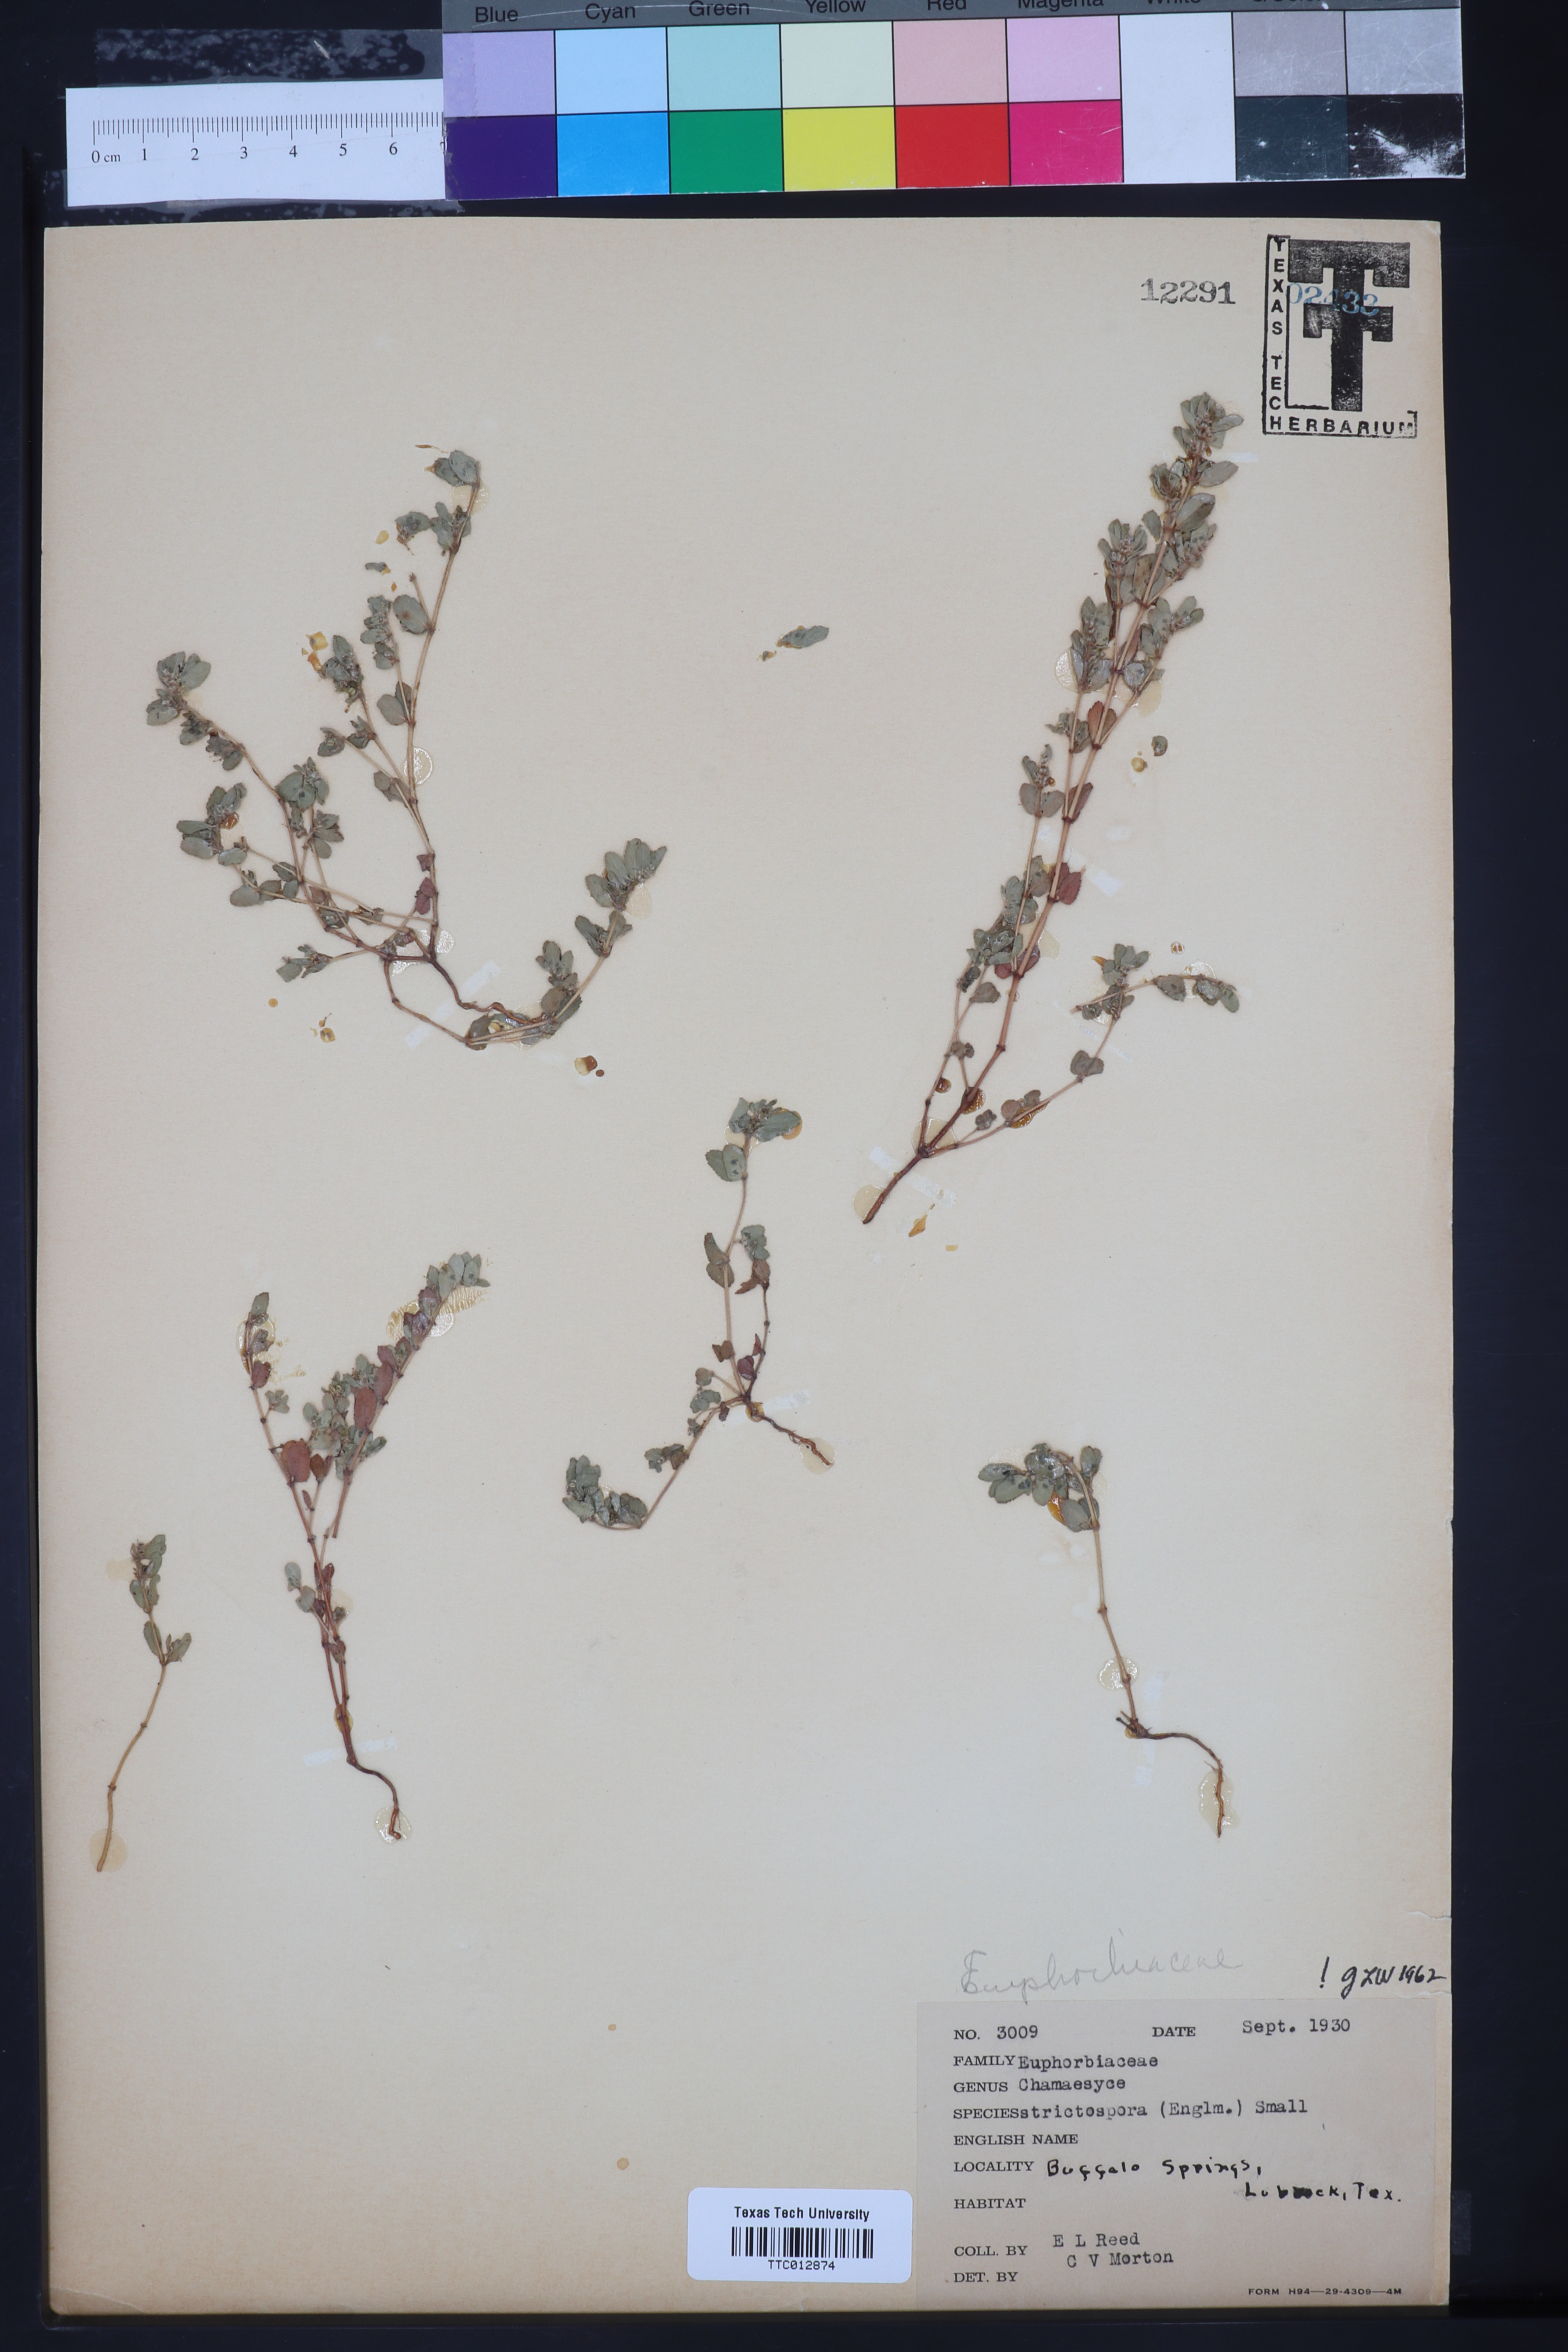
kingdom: Plantae
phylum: Tracheophyta
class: Magnoliopsida
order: Malpighiales
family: Euphorbiaceae
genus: Euphorbia
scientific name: Euphorbia
